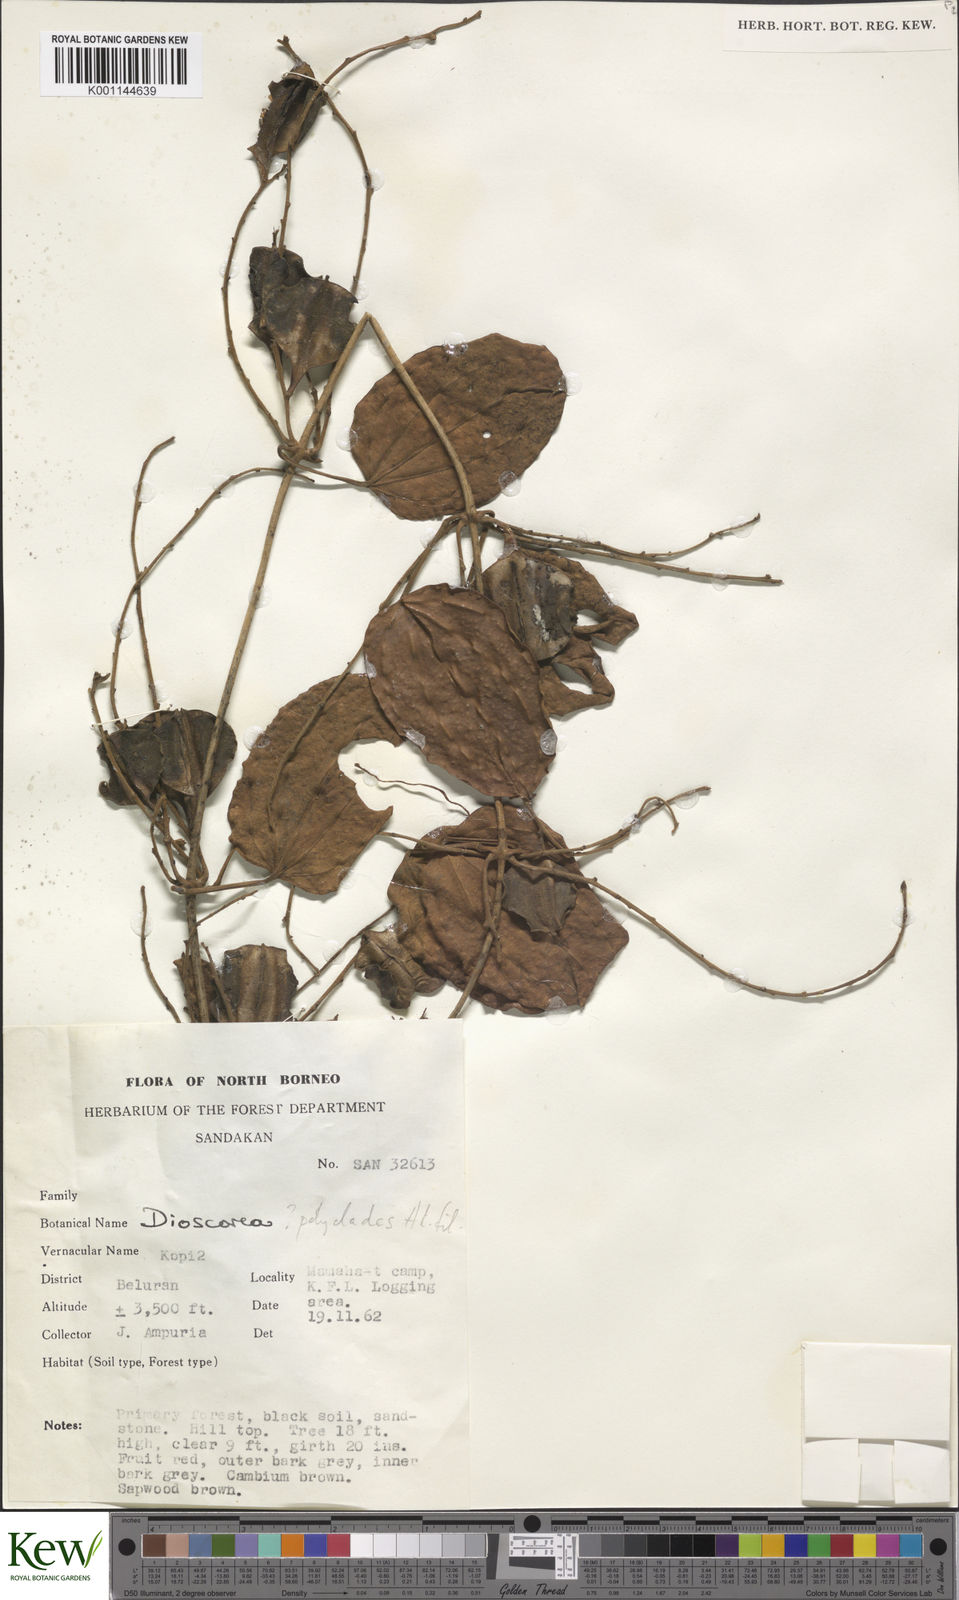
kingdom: Plantae
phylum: Tracheophyta
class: Liliopsida
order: Dioscoreales
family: Dioscoreaceae
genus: Dioscorea
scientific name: Dioscorea polyclados
